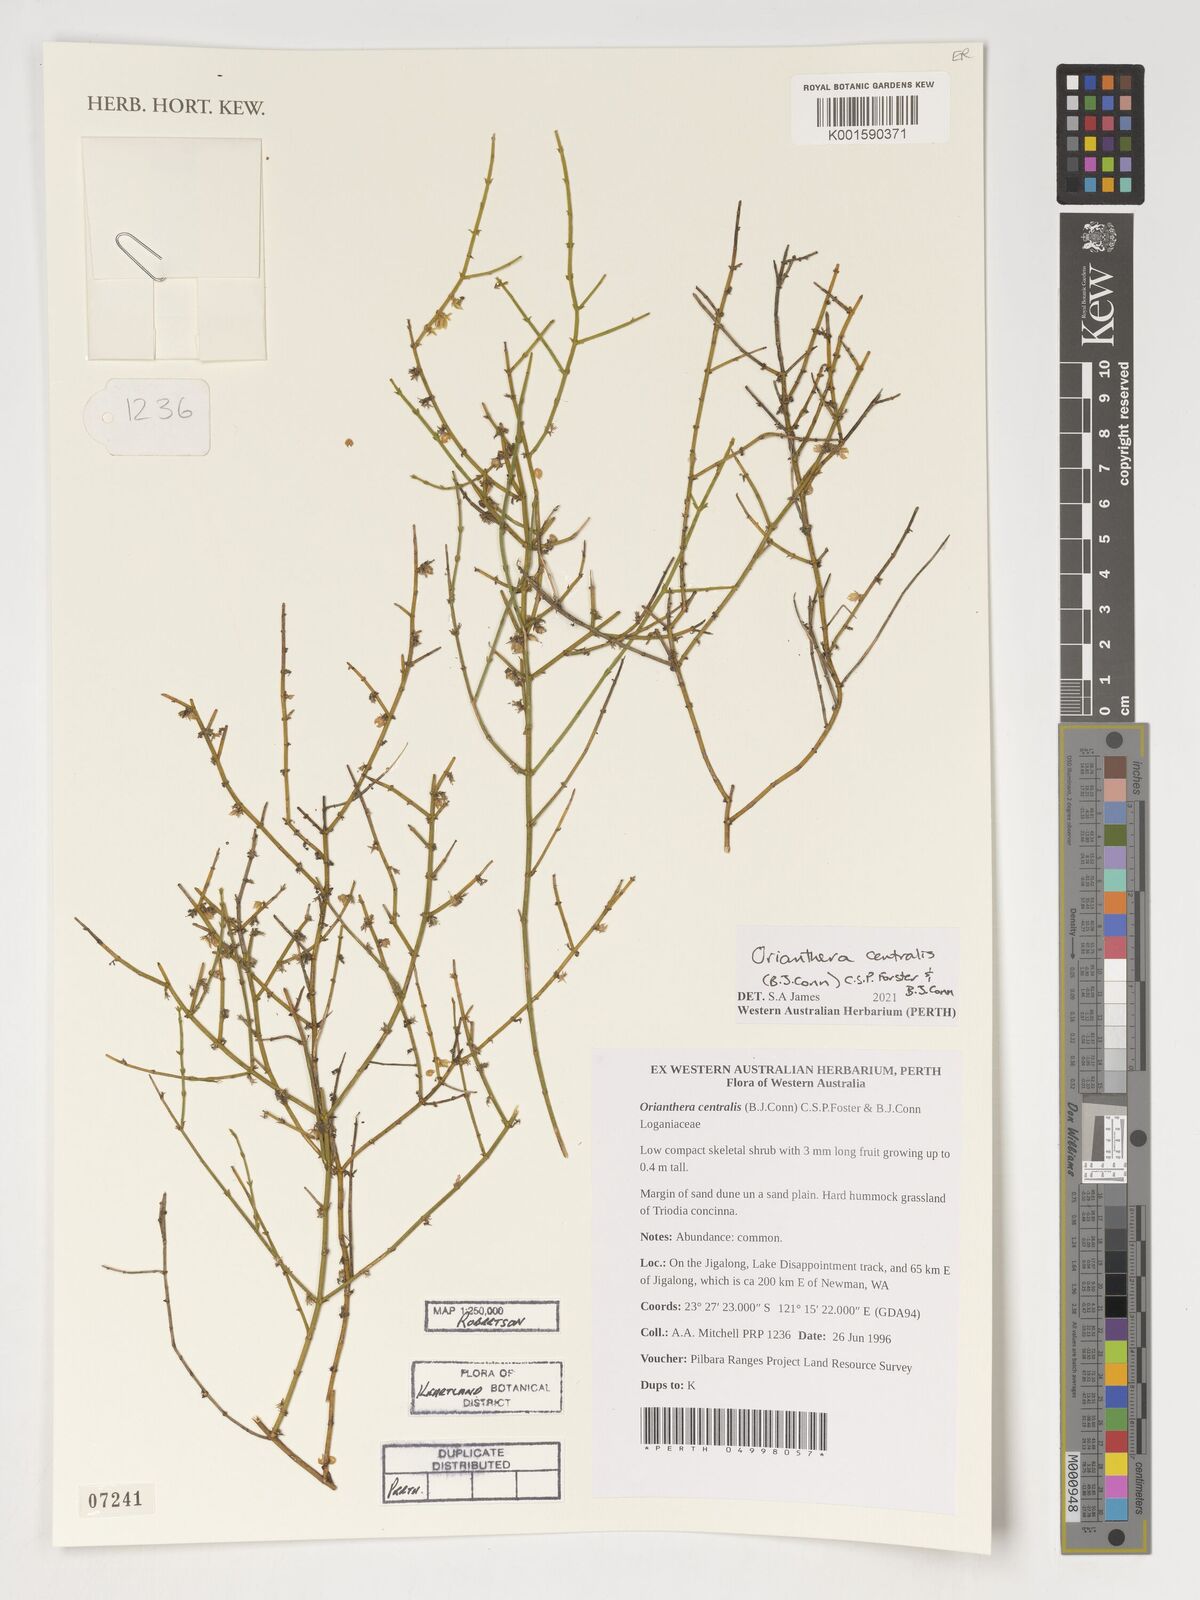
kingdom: Plantae
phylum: Tracheophyta
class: Magnoliopsida
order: Gentianales
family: Loganiaceae
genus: Orianthera
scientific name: Orianthera centralis
